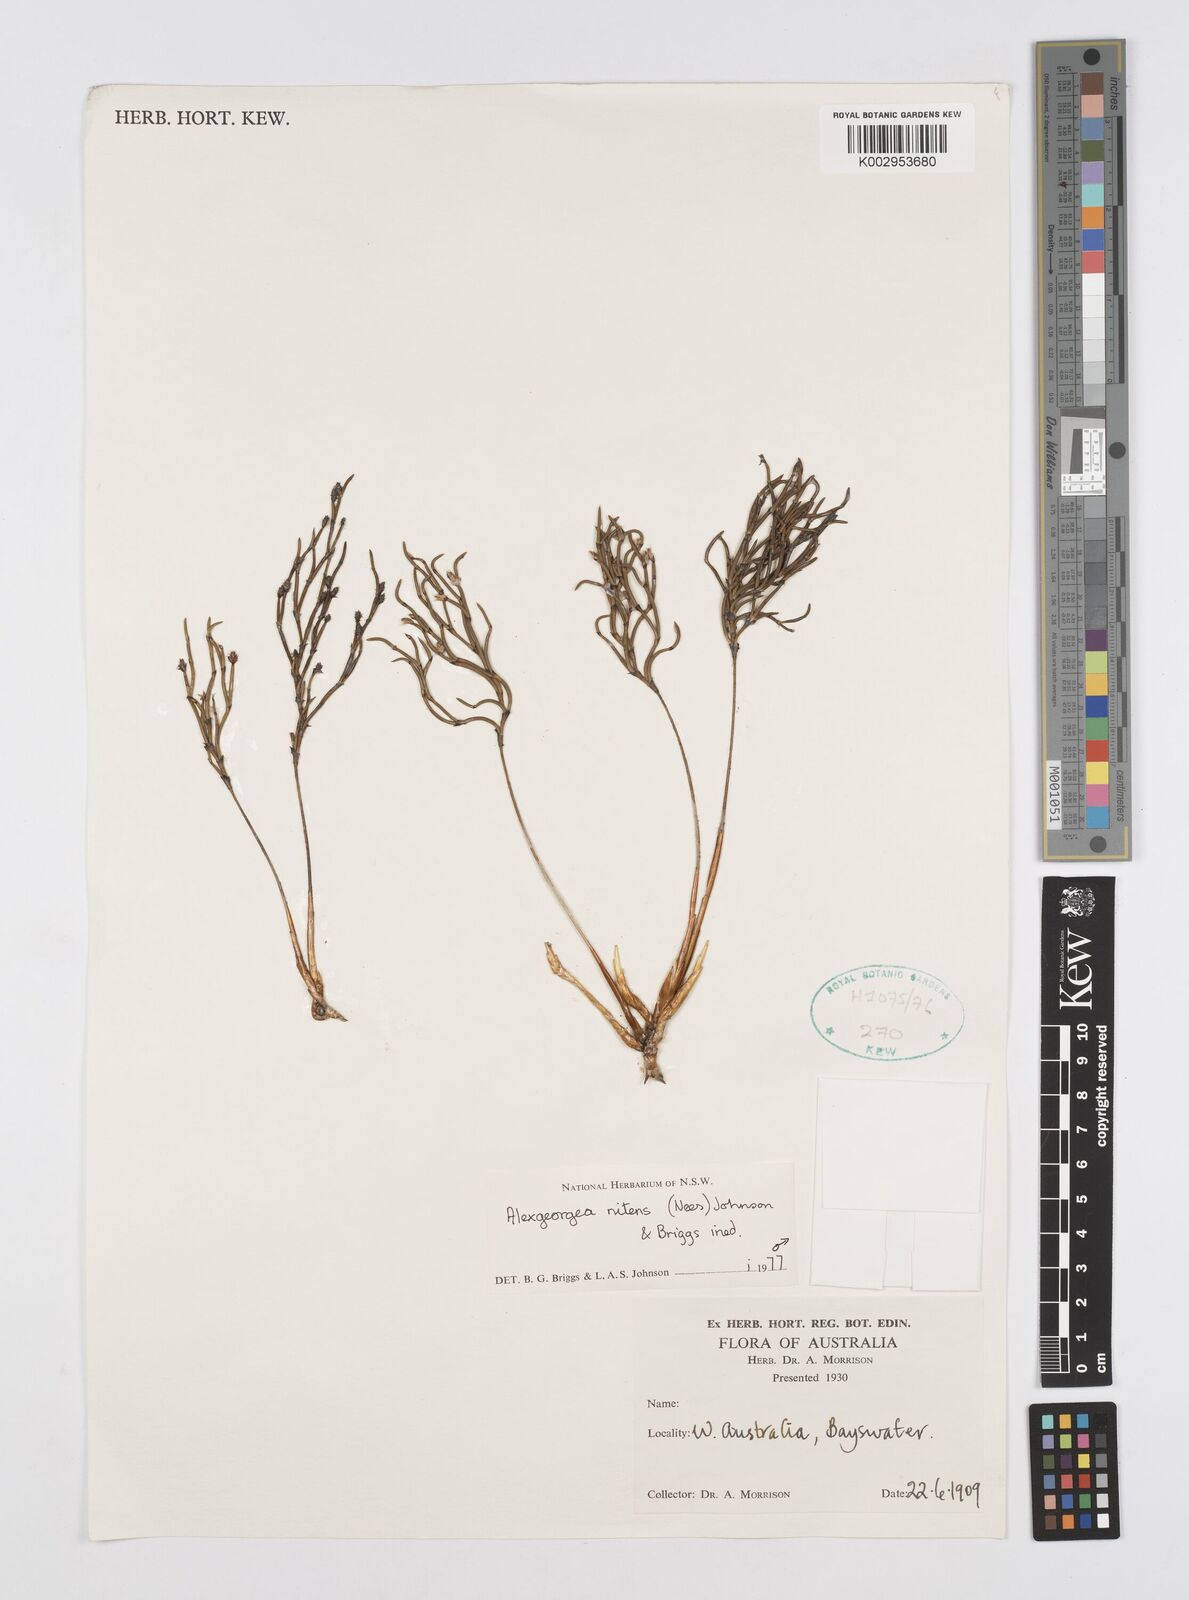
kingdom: Plantae
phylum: Tracheophyta
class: Liliopsida
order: Poales
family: Restionaceae
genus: Alexgeorgea
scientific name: Alexgeorgea nitens
